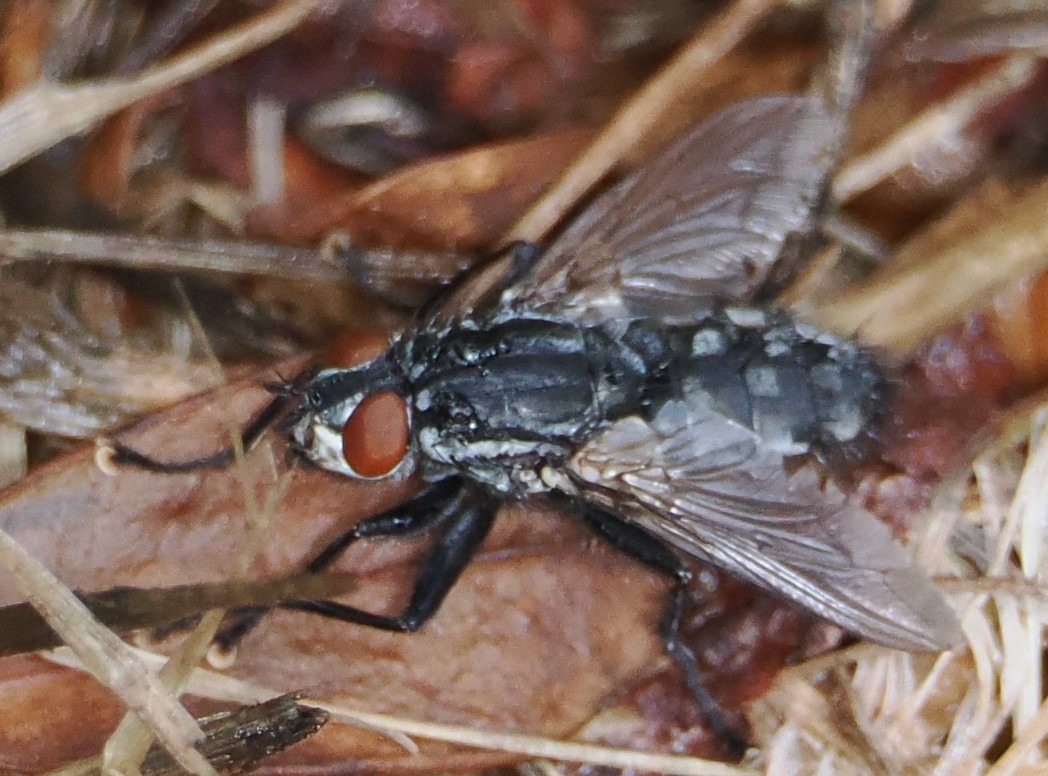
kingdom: Animalia
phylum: Arthropoda
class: Insecta
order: Diptera
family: Sarcophagidae
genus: Sarcophaga
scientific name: Sarcophaga
